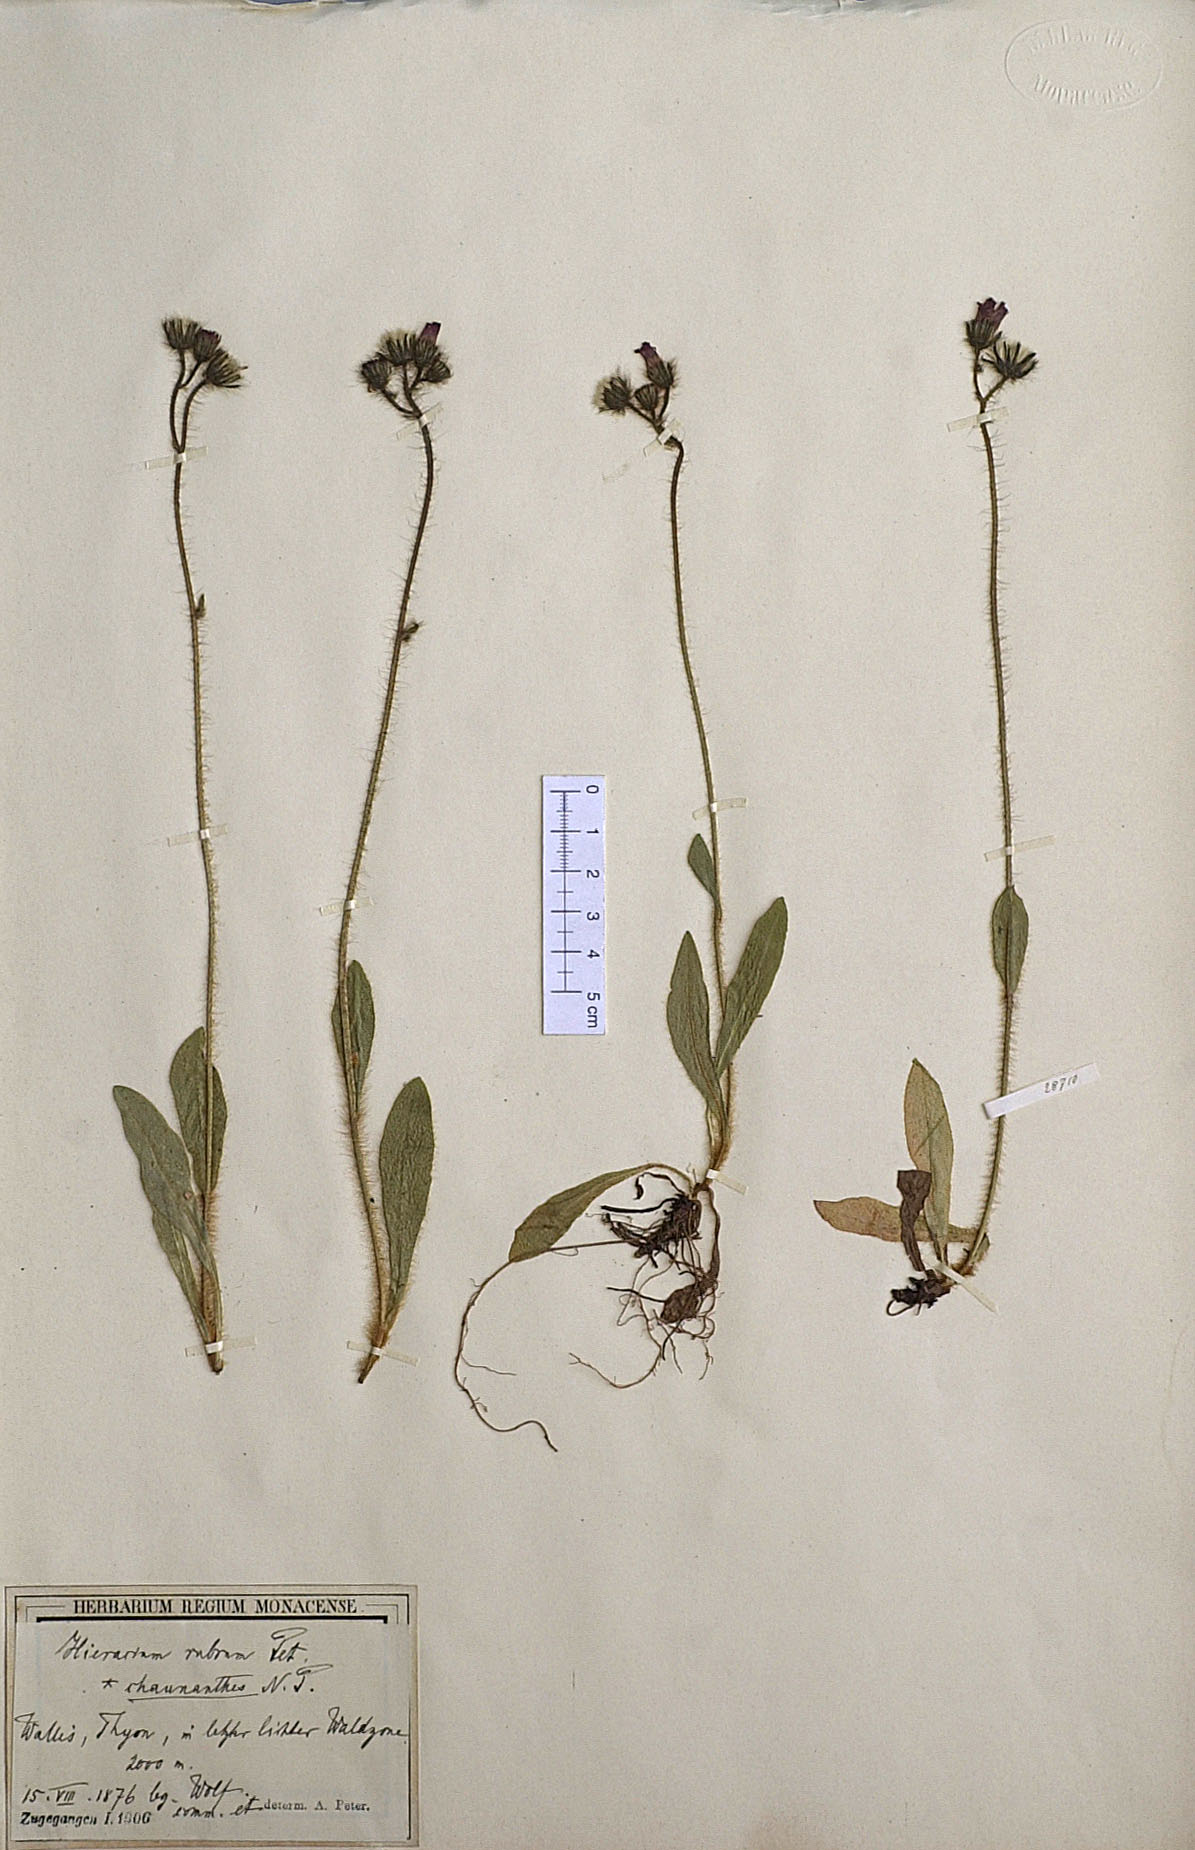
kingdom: Plantae
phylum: Tracheophyta
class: Magnoliopsida
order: Asterales
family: Asteraceae
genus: Pilosella
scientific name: Pilosella rubra
